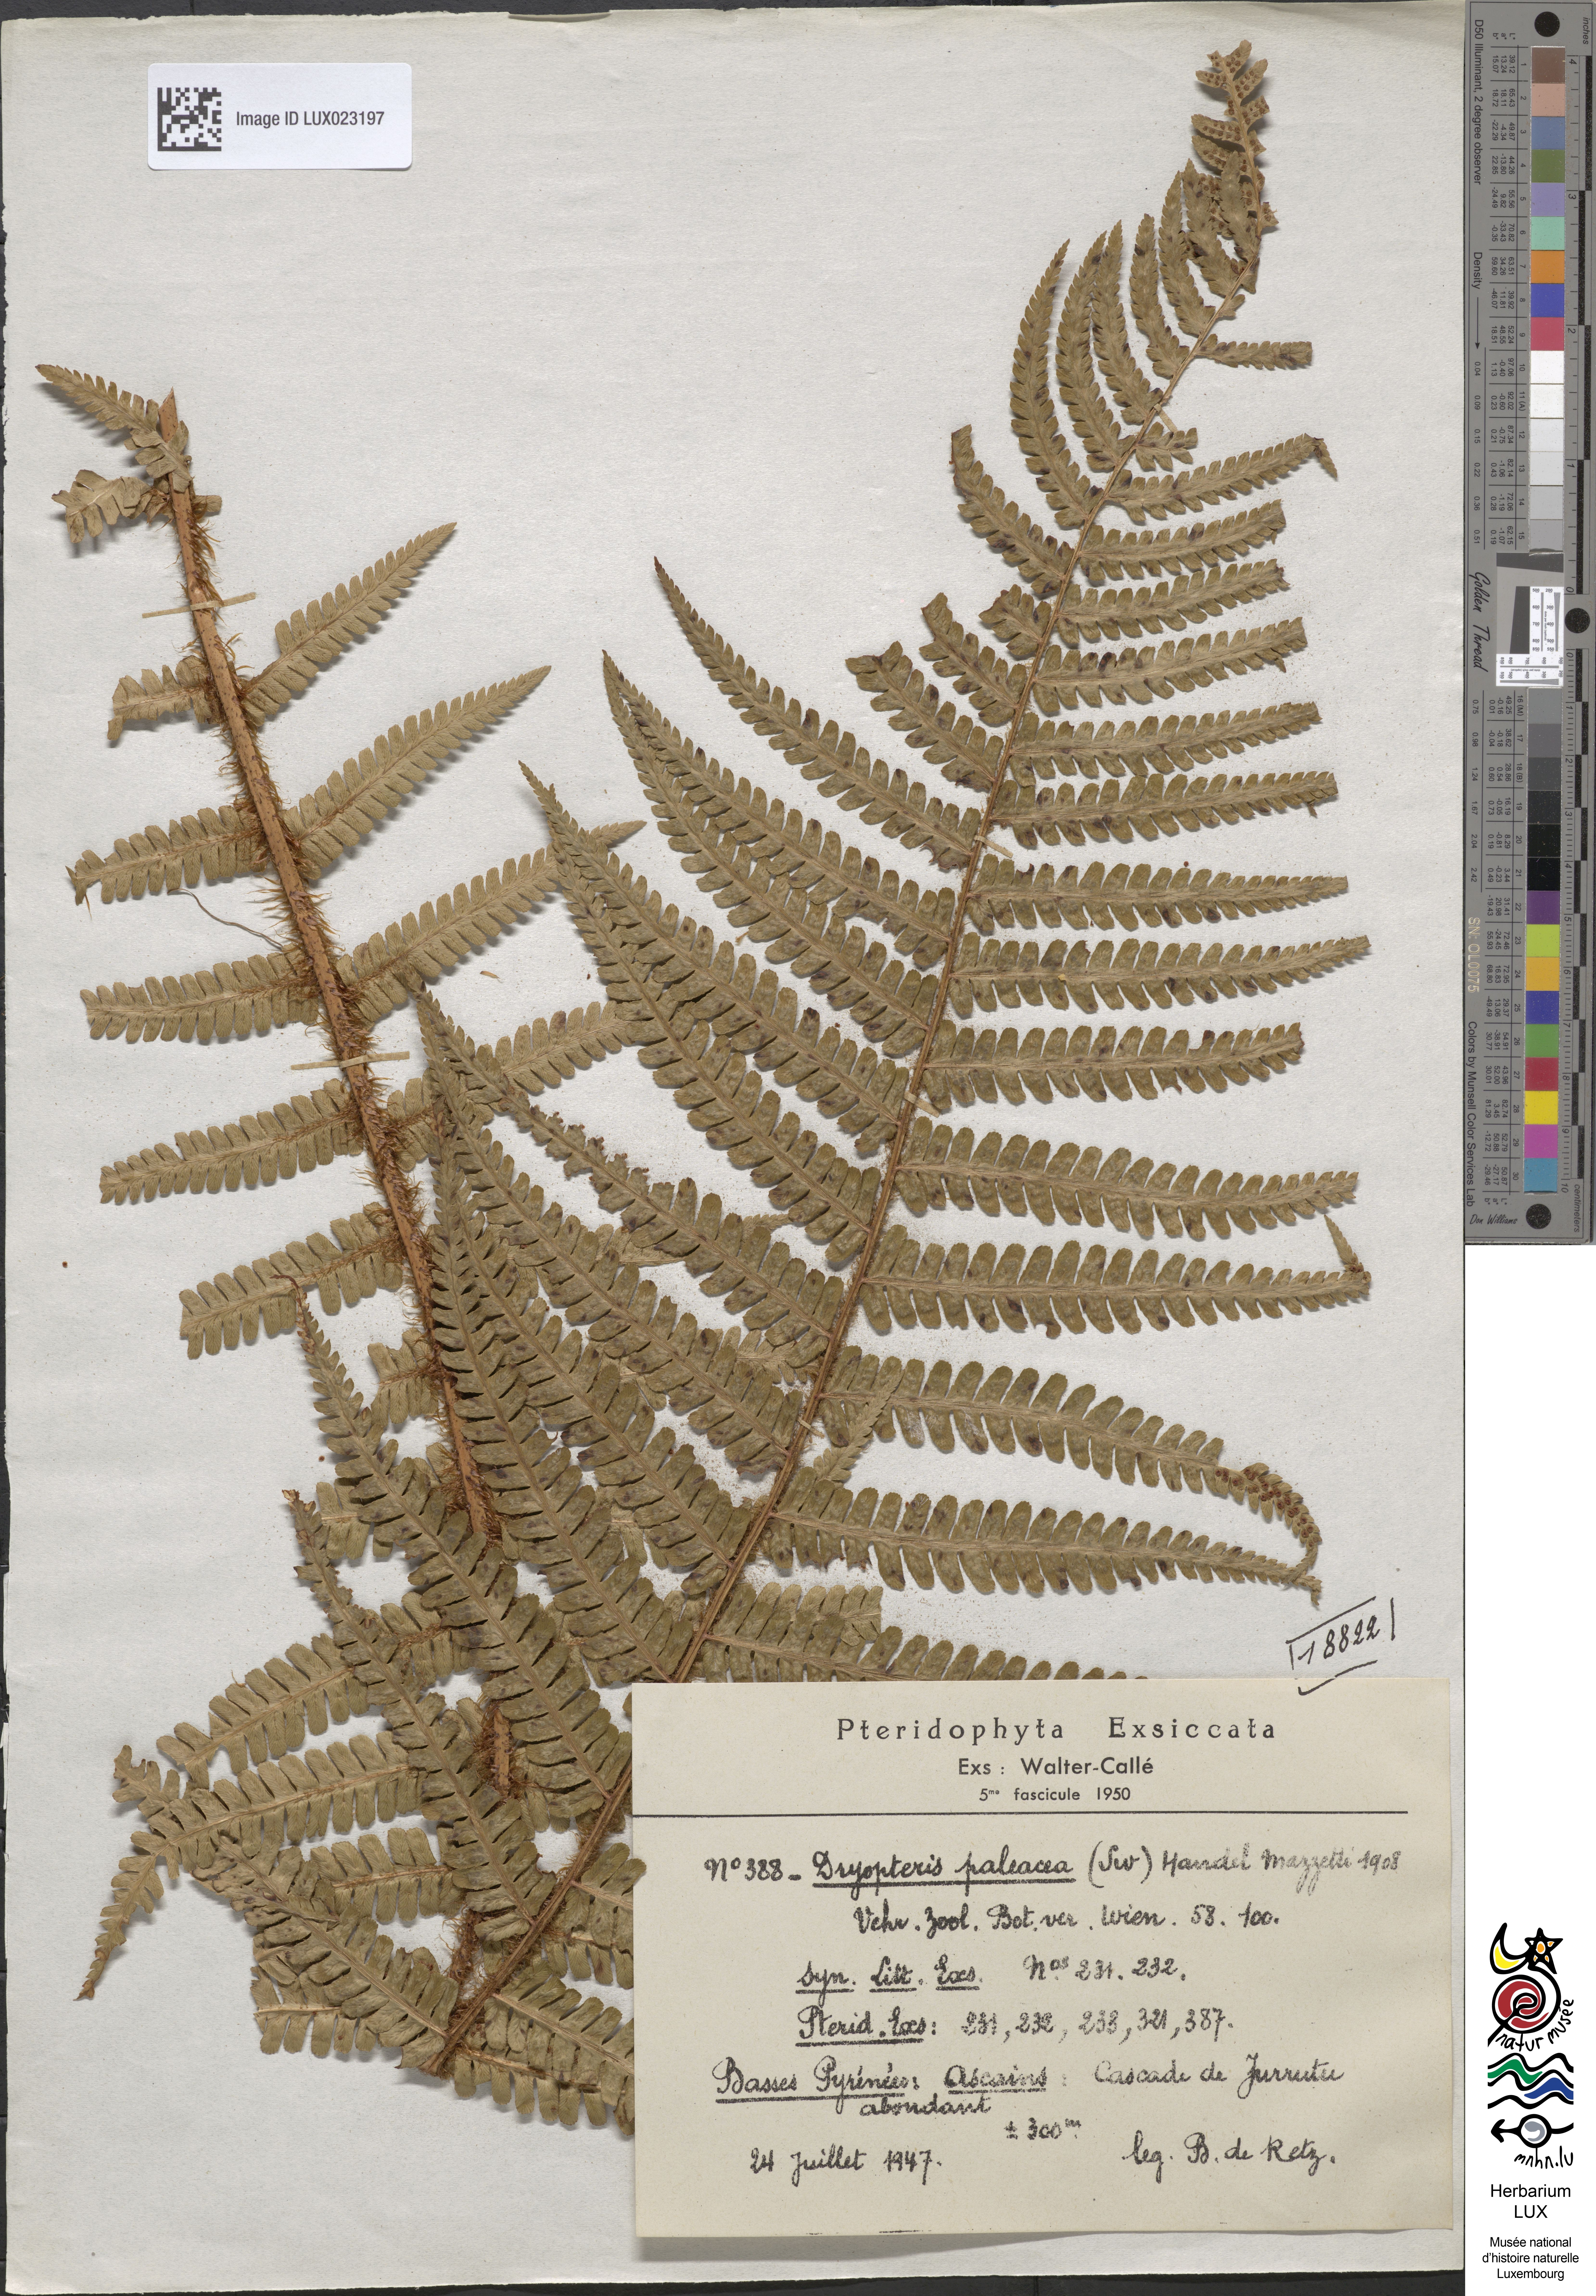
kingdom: Plantae
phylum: Tracheophyta
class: Polypodiopsida
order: Polypodiales
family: Dryopteridaceae
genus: Dryopteris
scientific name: Dryopteris paleacea
